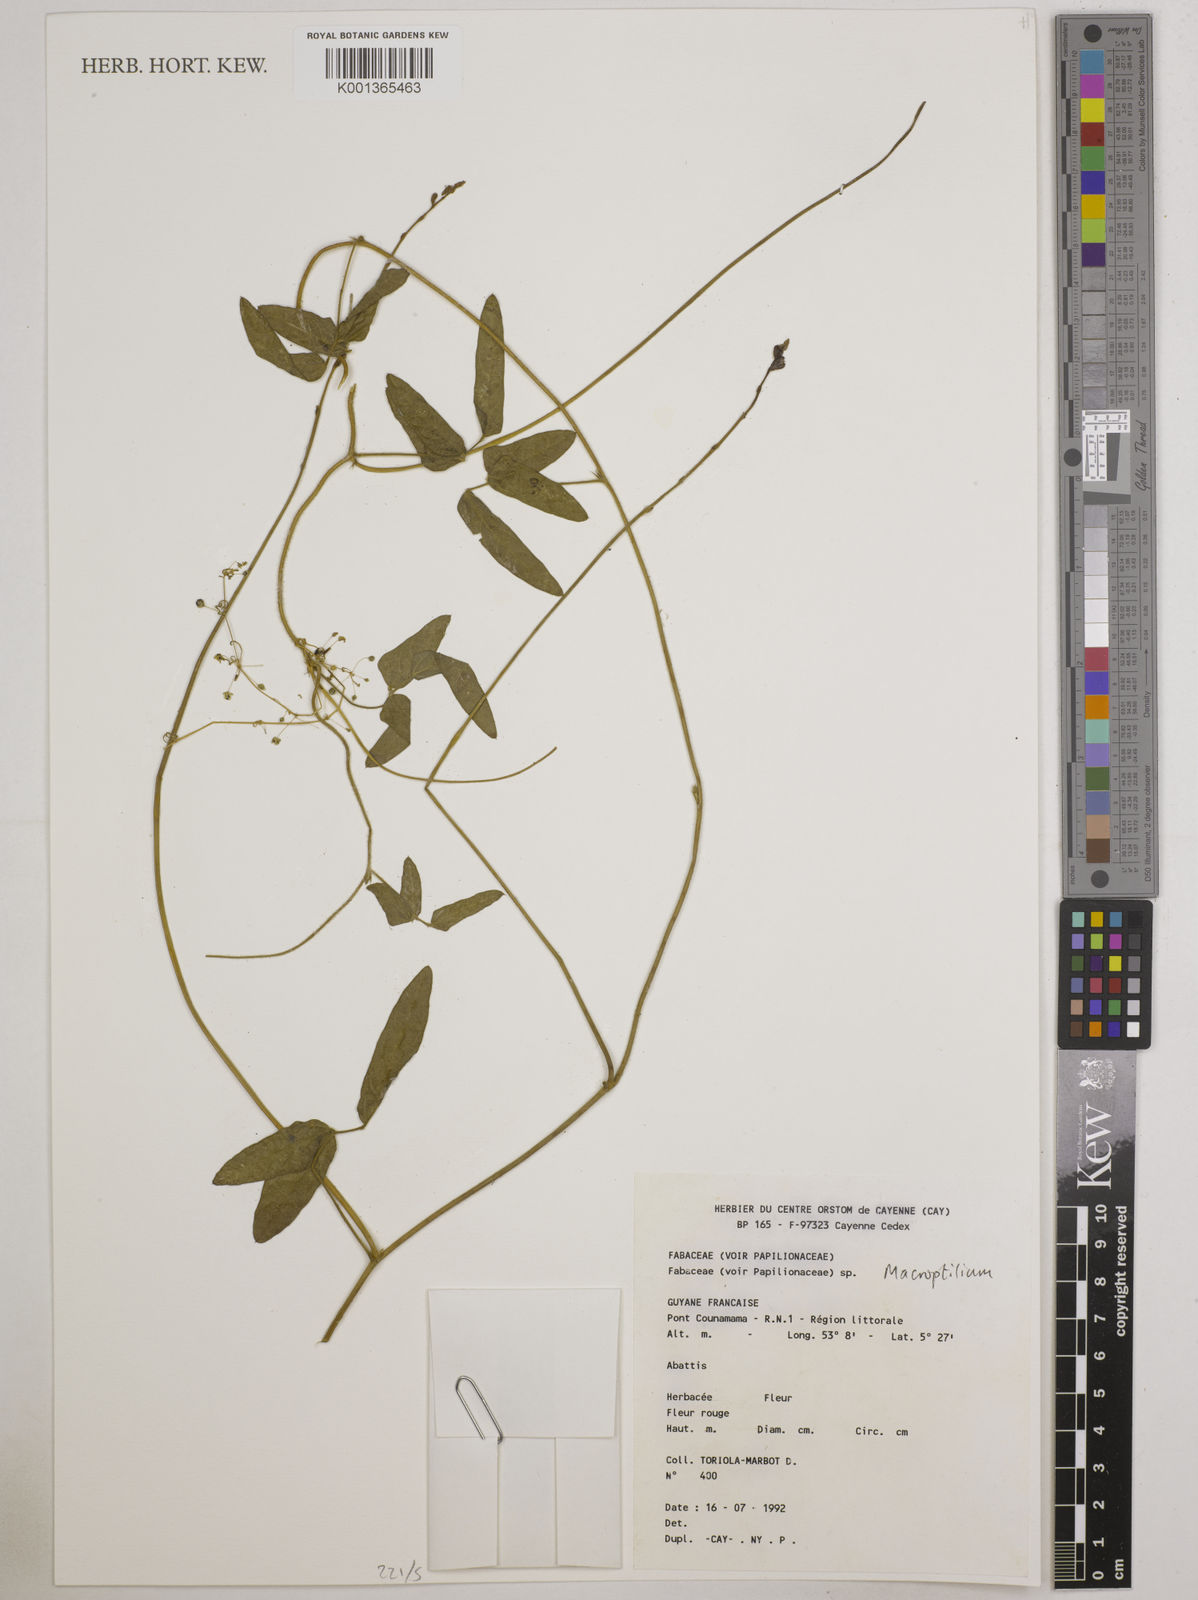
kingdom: Plantae
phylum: Tracheophyta
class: Magnoliopsida
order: Fabales
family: Fabaceae
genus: Macroptilium
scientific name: Macroptilium
